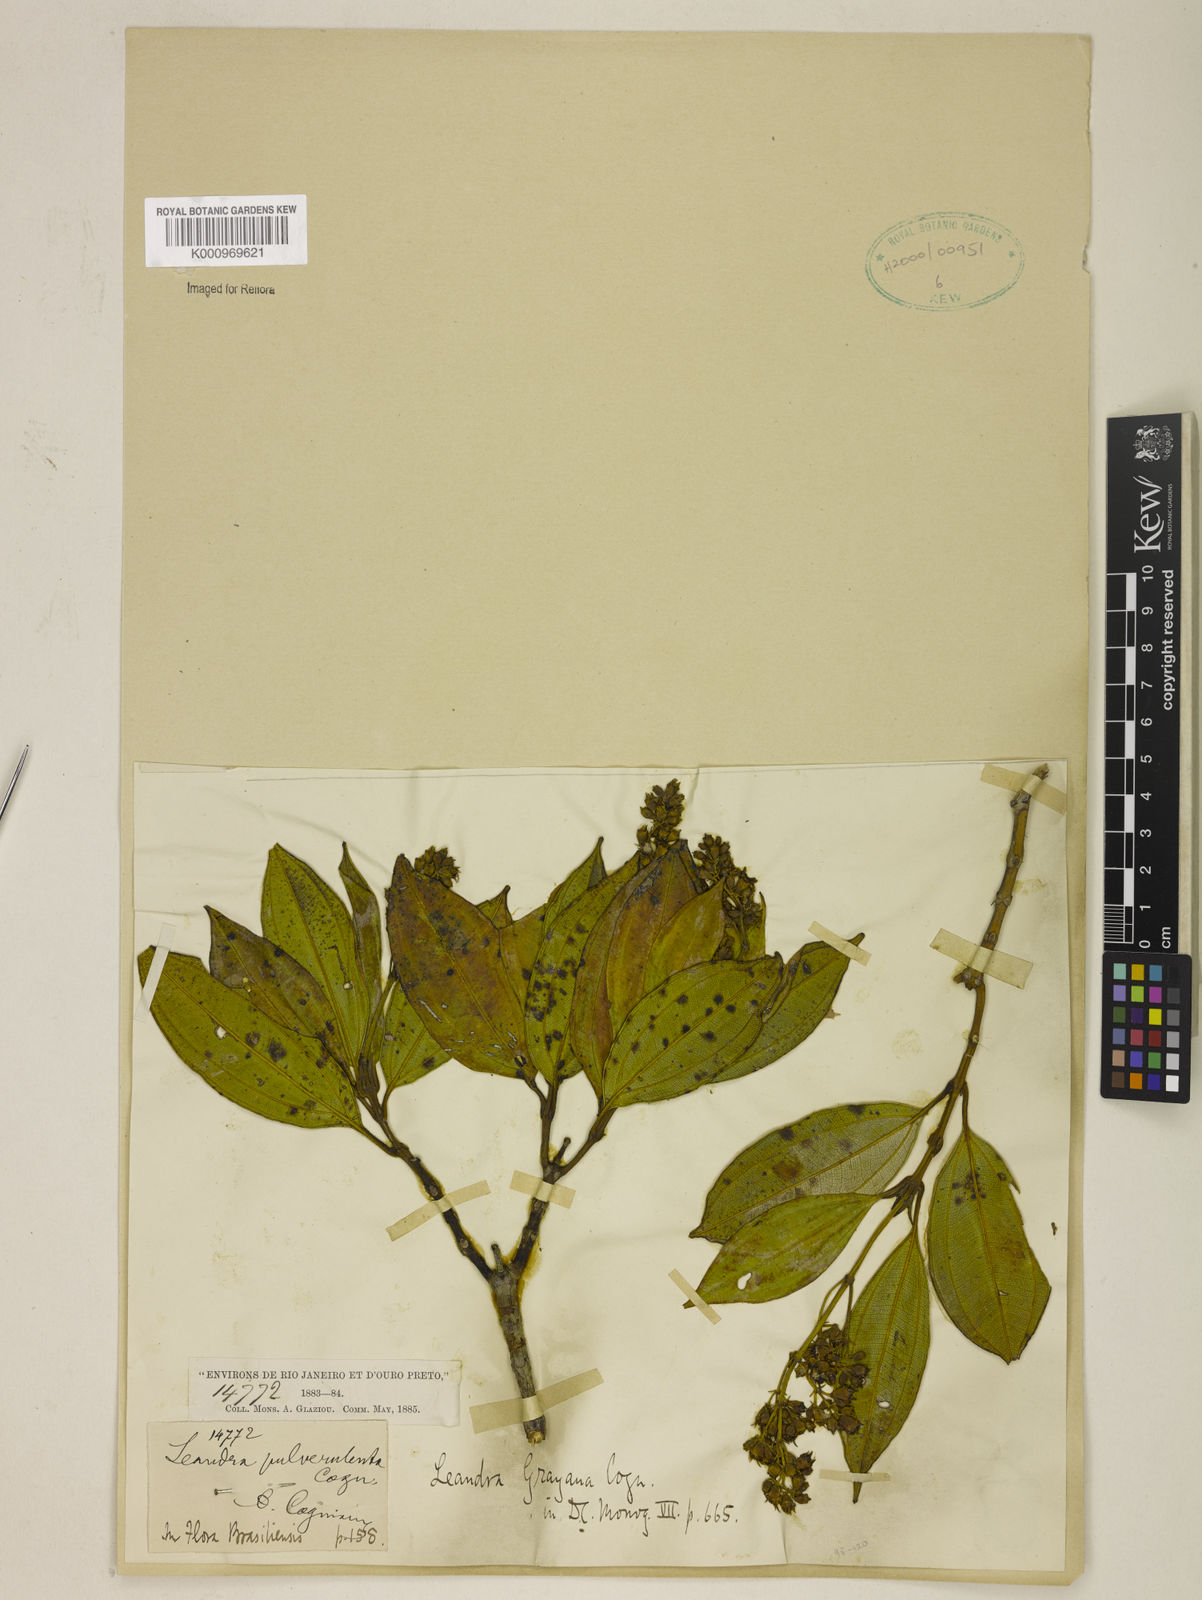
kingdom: Plantae
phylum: Tracheophyta
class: Magnoliopsida
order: Myrtales
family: Melastomataceae
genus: Miconia
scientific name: Miconia leagrayana
